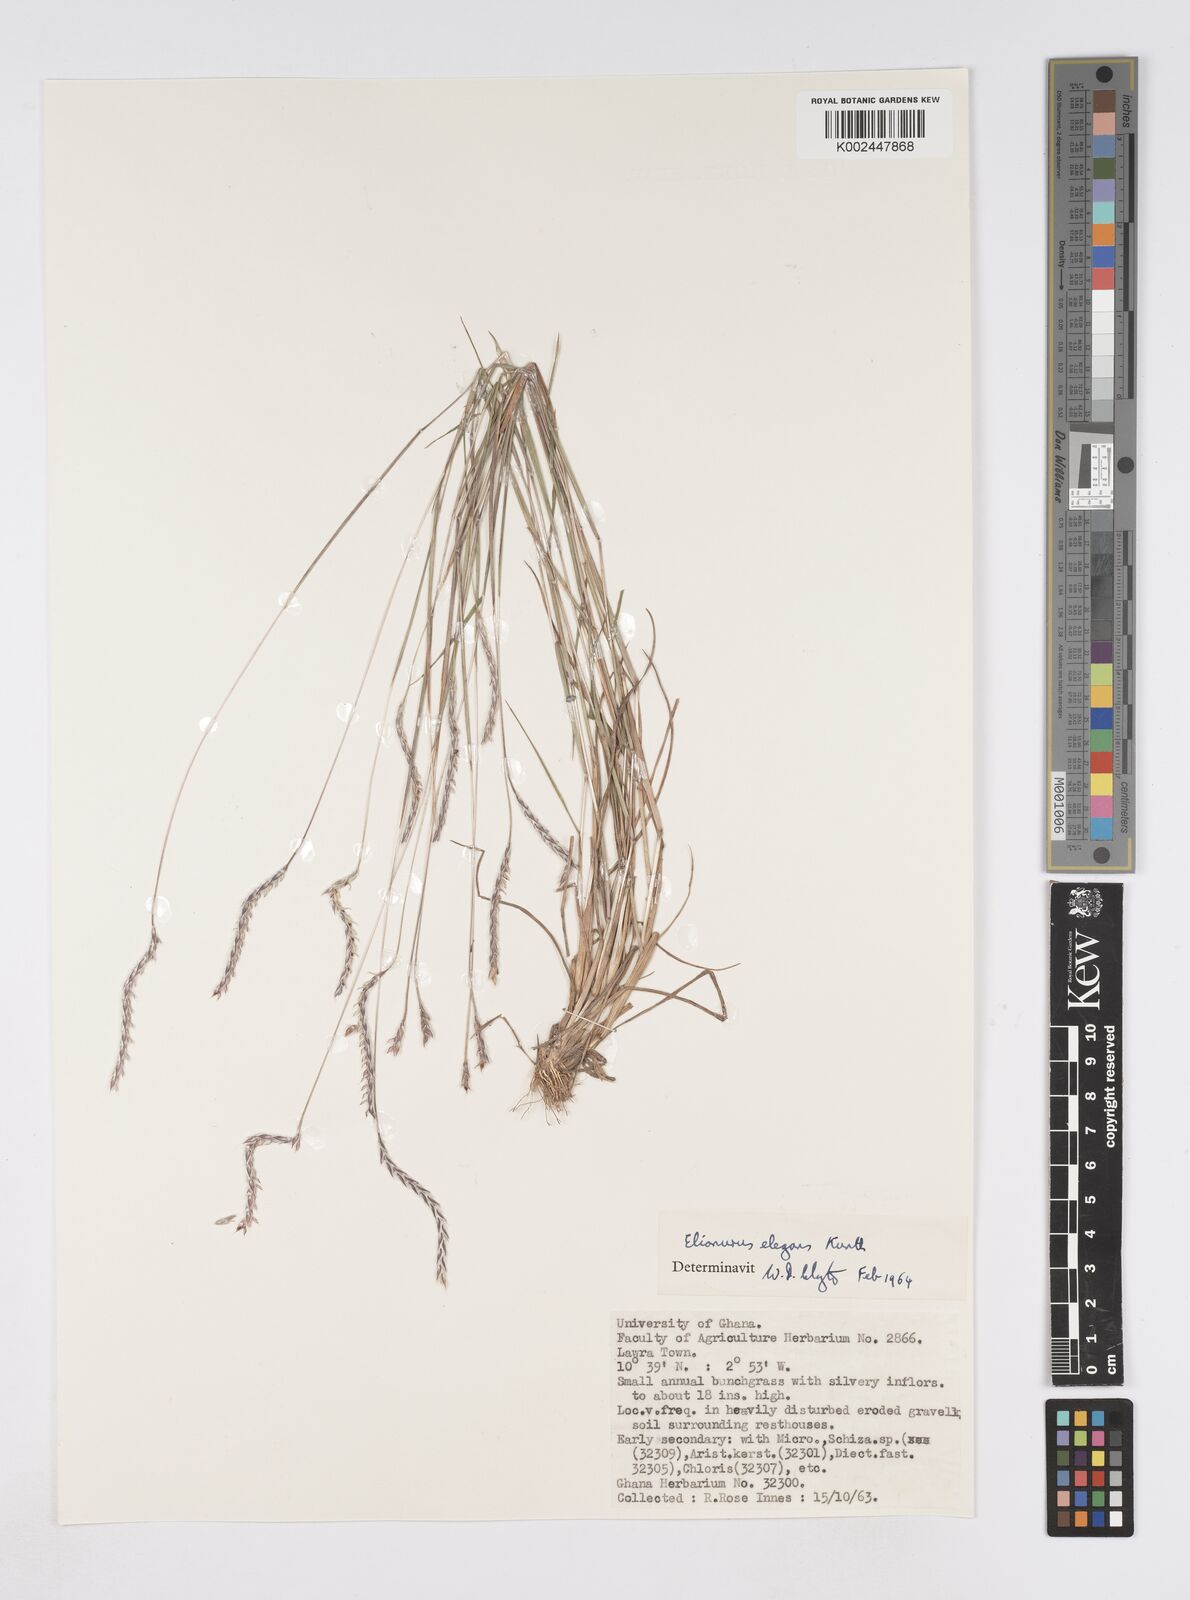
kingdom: Plantae
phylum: Tracheophyta
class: Liliopsida
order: Poales
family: Poaceae
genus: Elionurus
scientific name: Elionurus elegans
